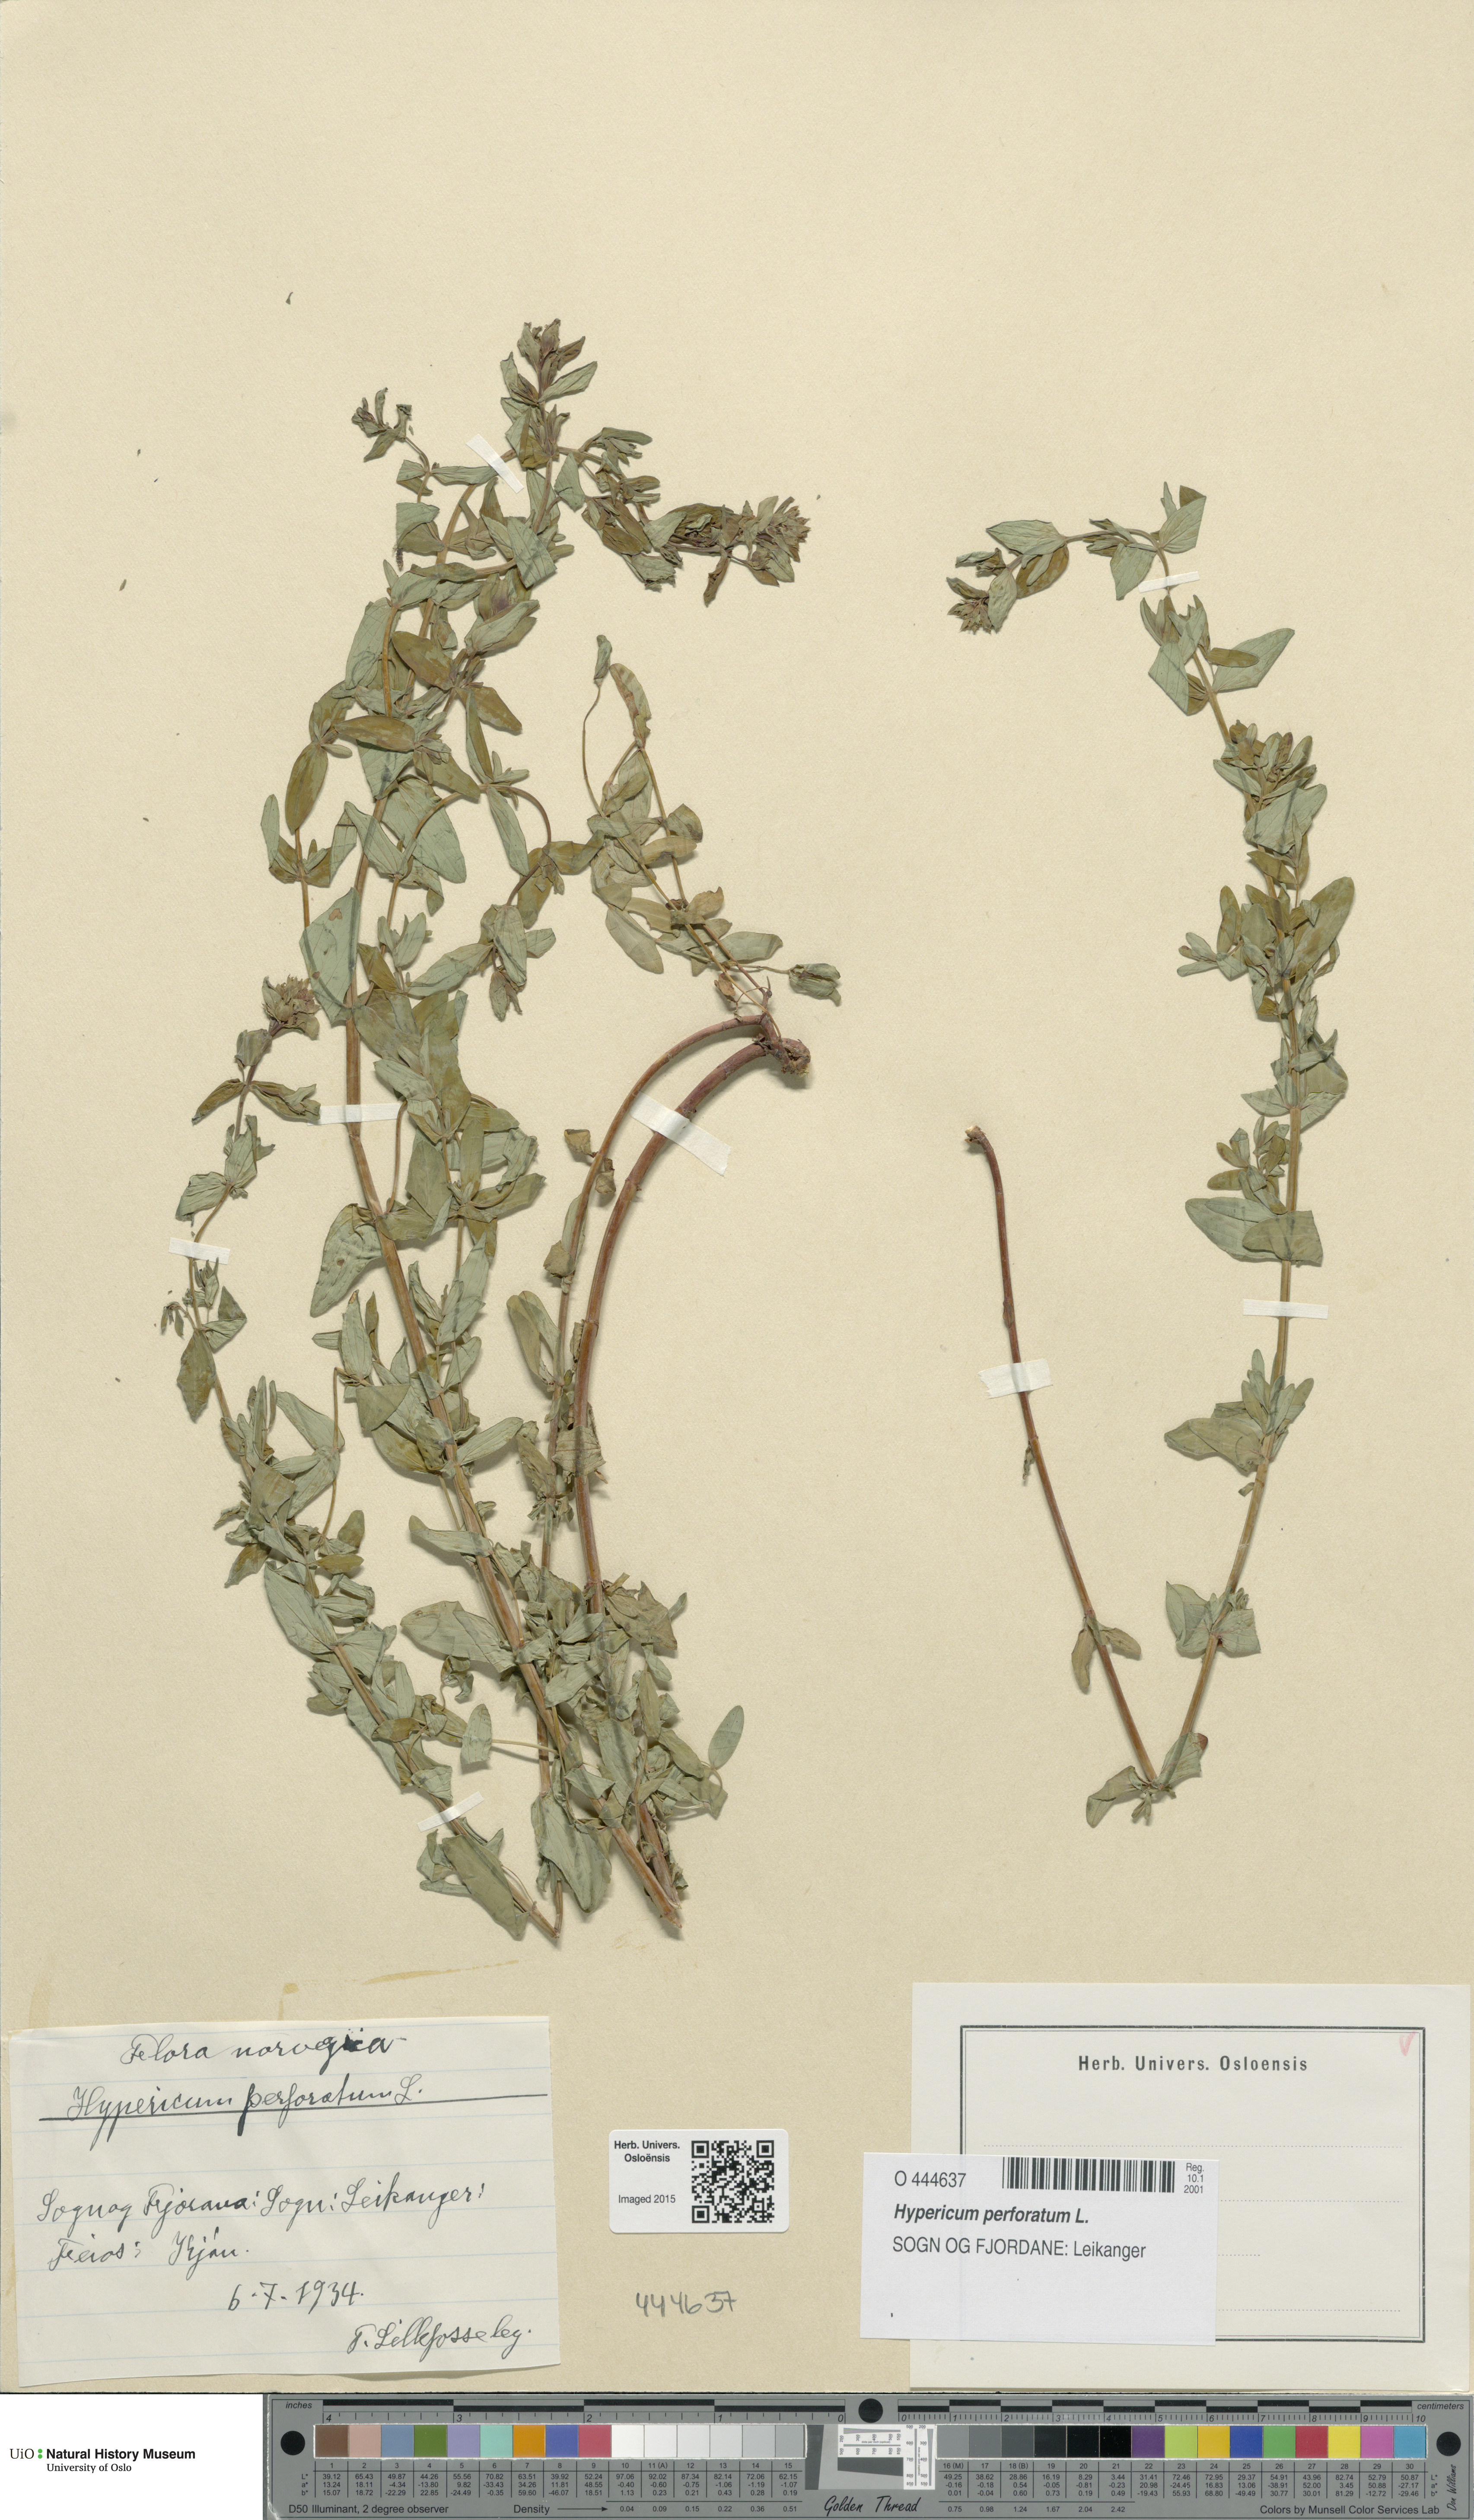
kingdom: Plantae
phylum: Tracheophyta
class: Magnoliopsida
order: Malpighiales
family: Hypericaceae
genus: Hypericum
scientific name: Hypericum perforatum
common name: Common st. johnswort
